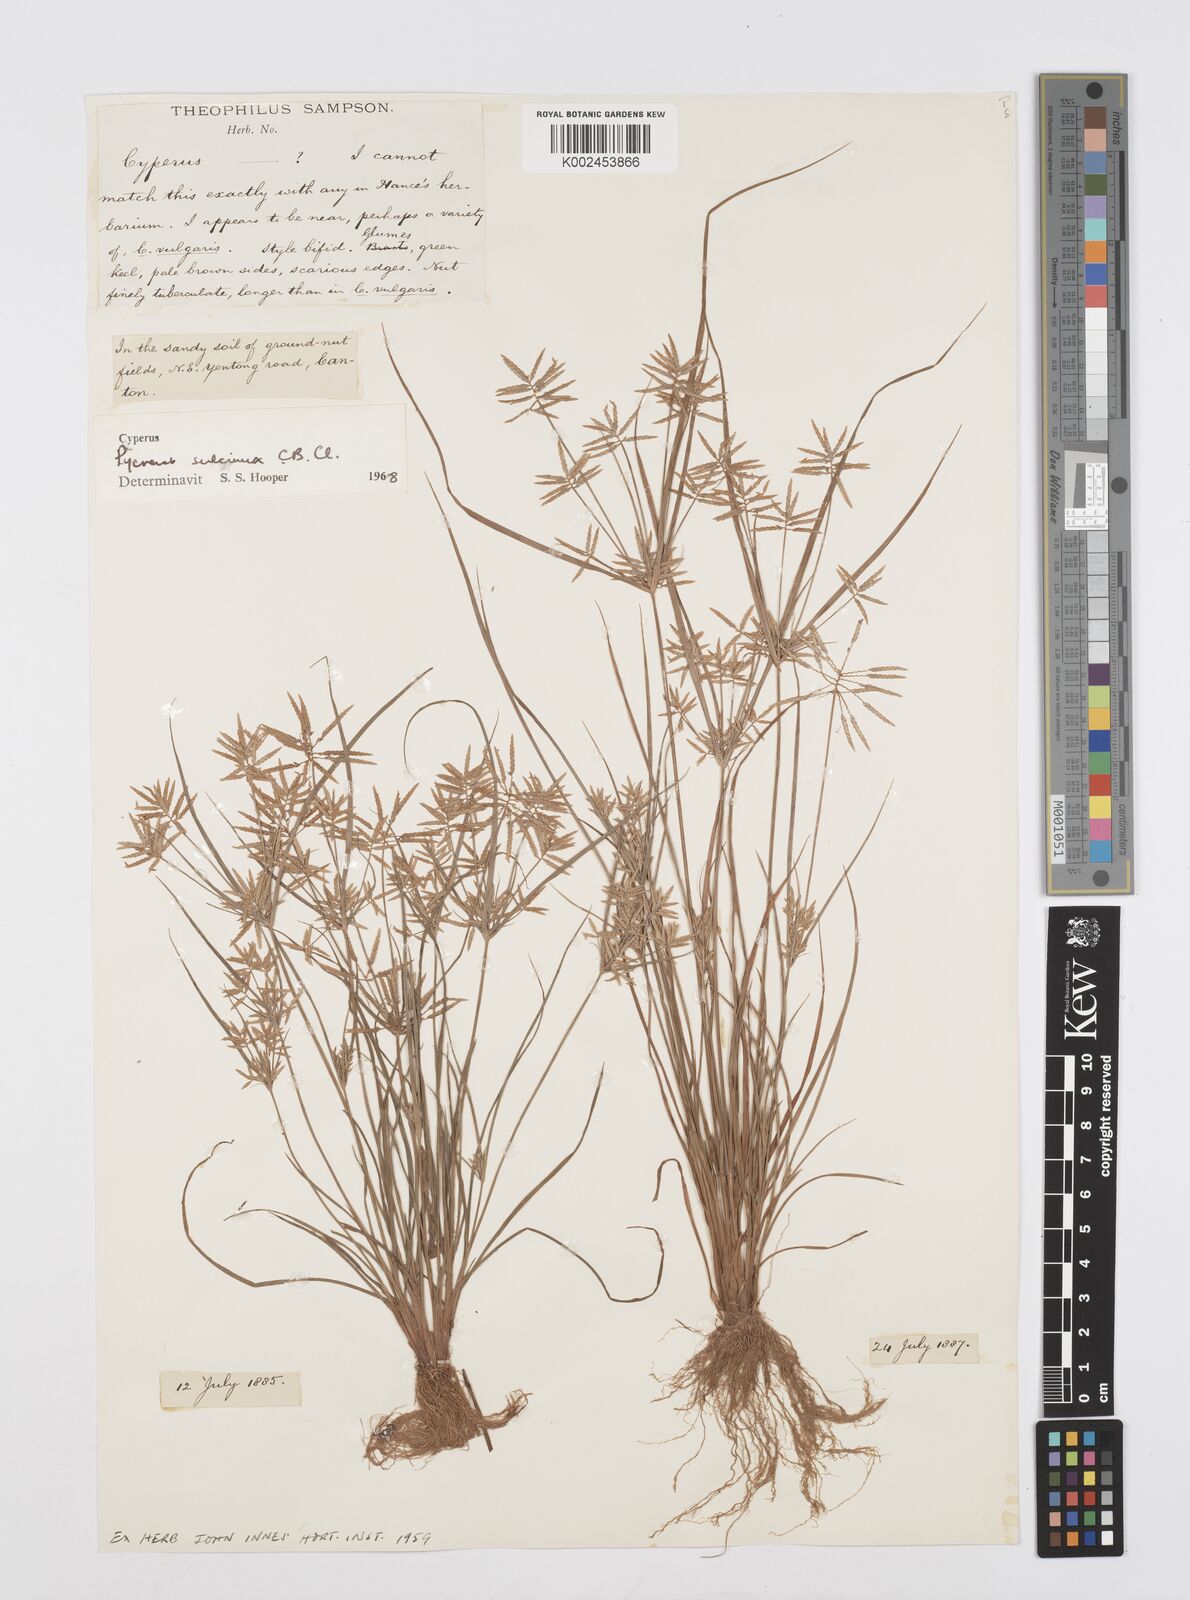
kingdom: Plantae
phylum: Tracheophyta
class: Liliopsida
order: Poales
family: Cyperaceae
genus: Cyperus
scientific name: Cyperus sulcinux
